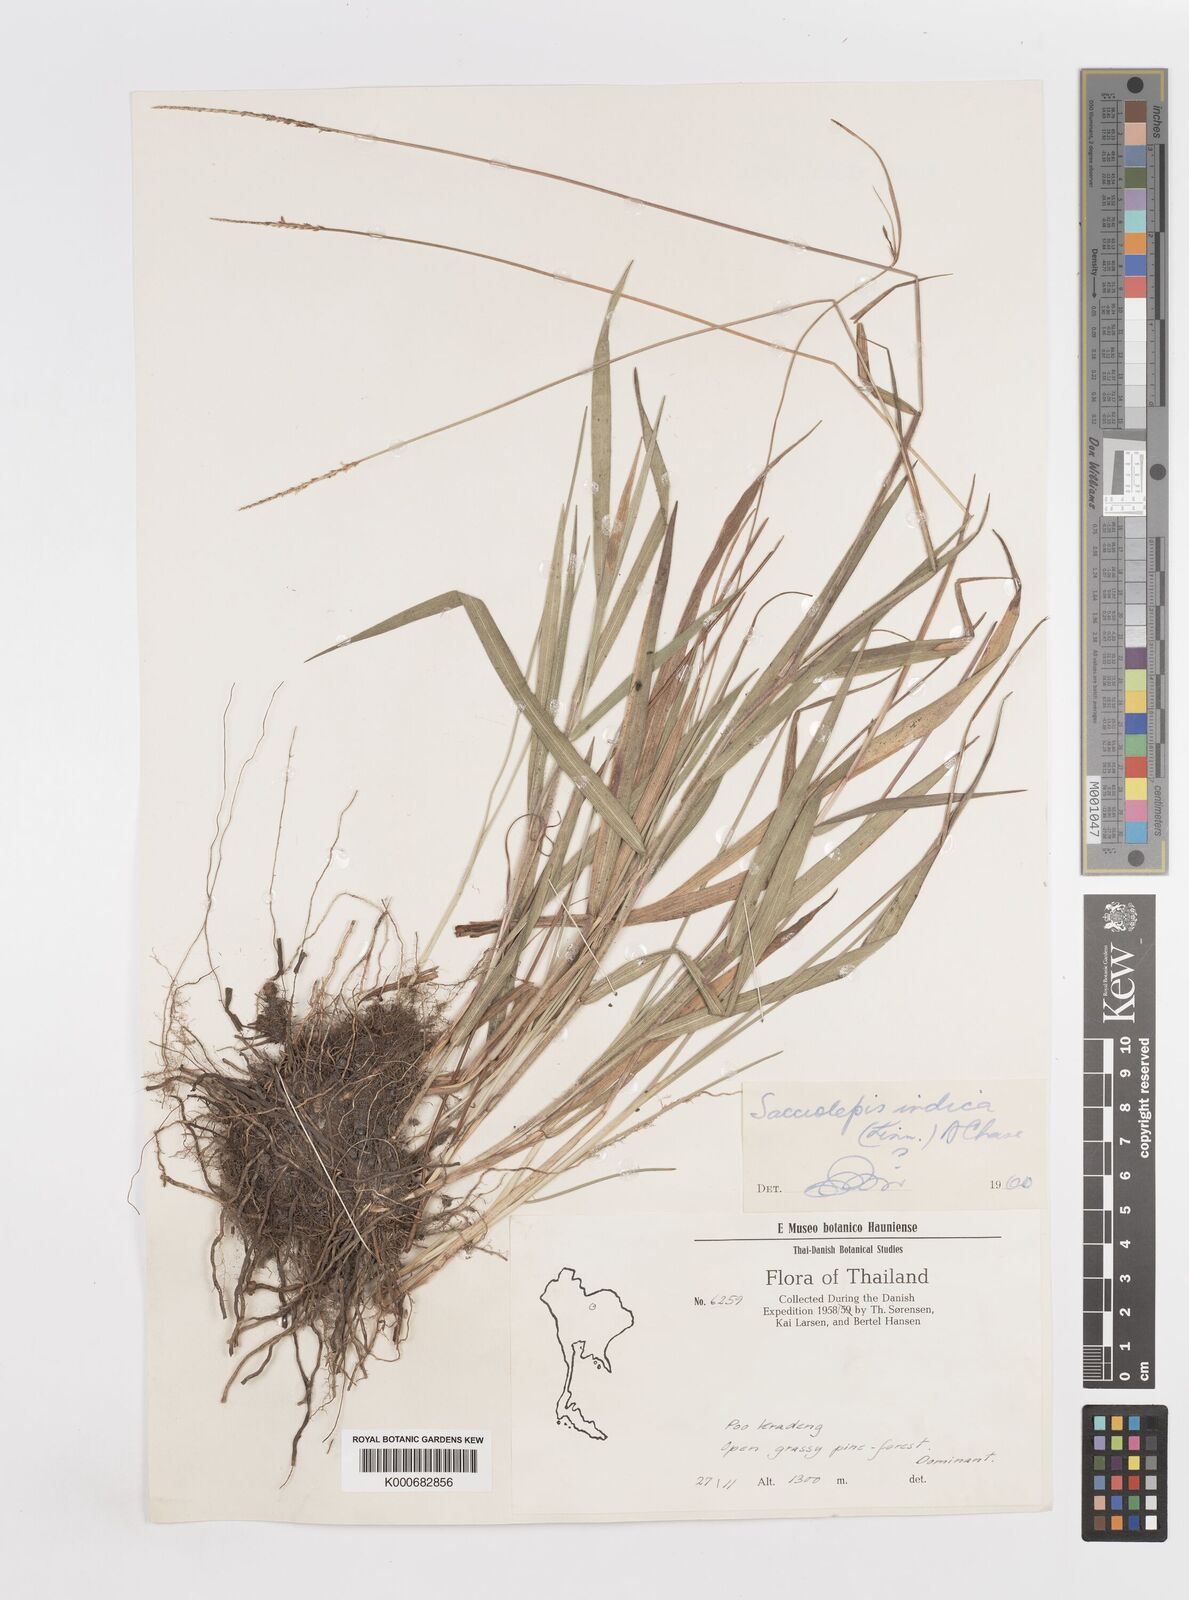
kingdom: Plantae
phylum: Tracheophyta
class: Liliopsida
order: Poales
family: Poaceae
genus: Sacciolepis
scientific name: Sacciolepis indica
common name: Glenwoodgrass
